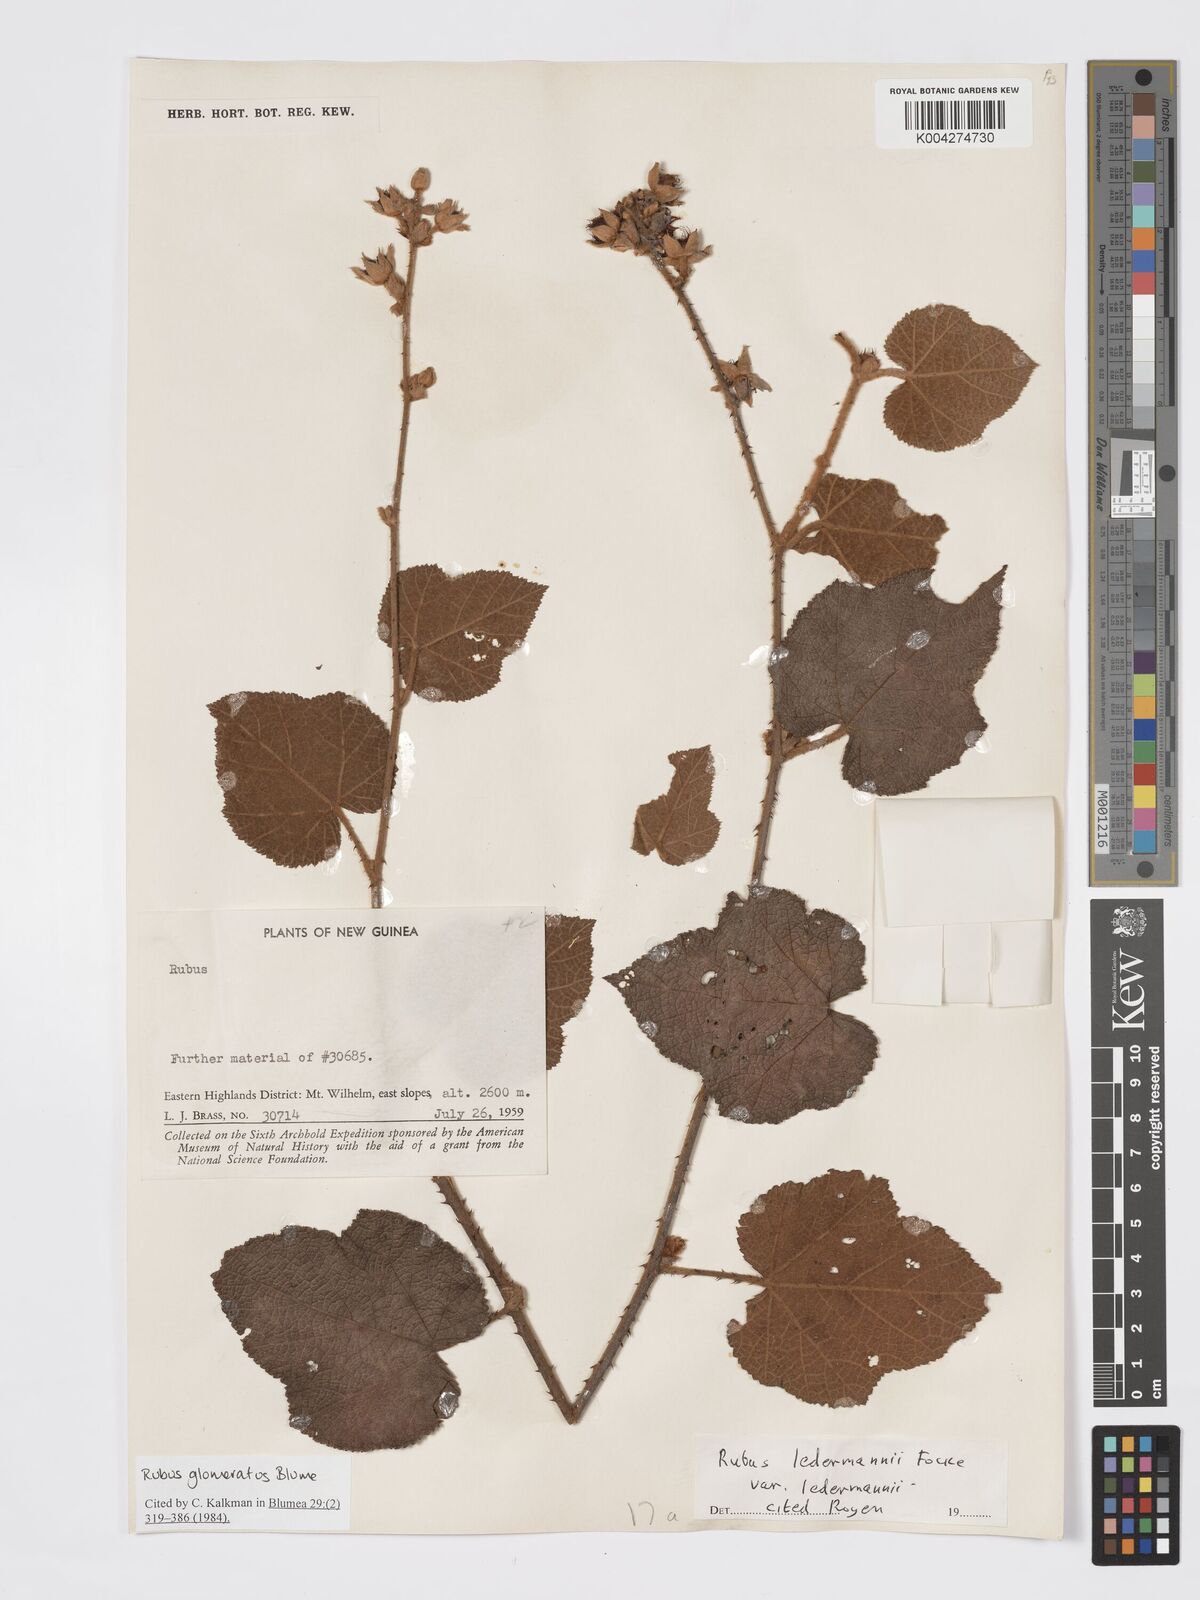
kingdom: Plantae
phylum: Tracheophyta
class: Magnoliopsida
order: Rosales
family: Rosaceae
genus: Rubus
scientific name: Rubus
